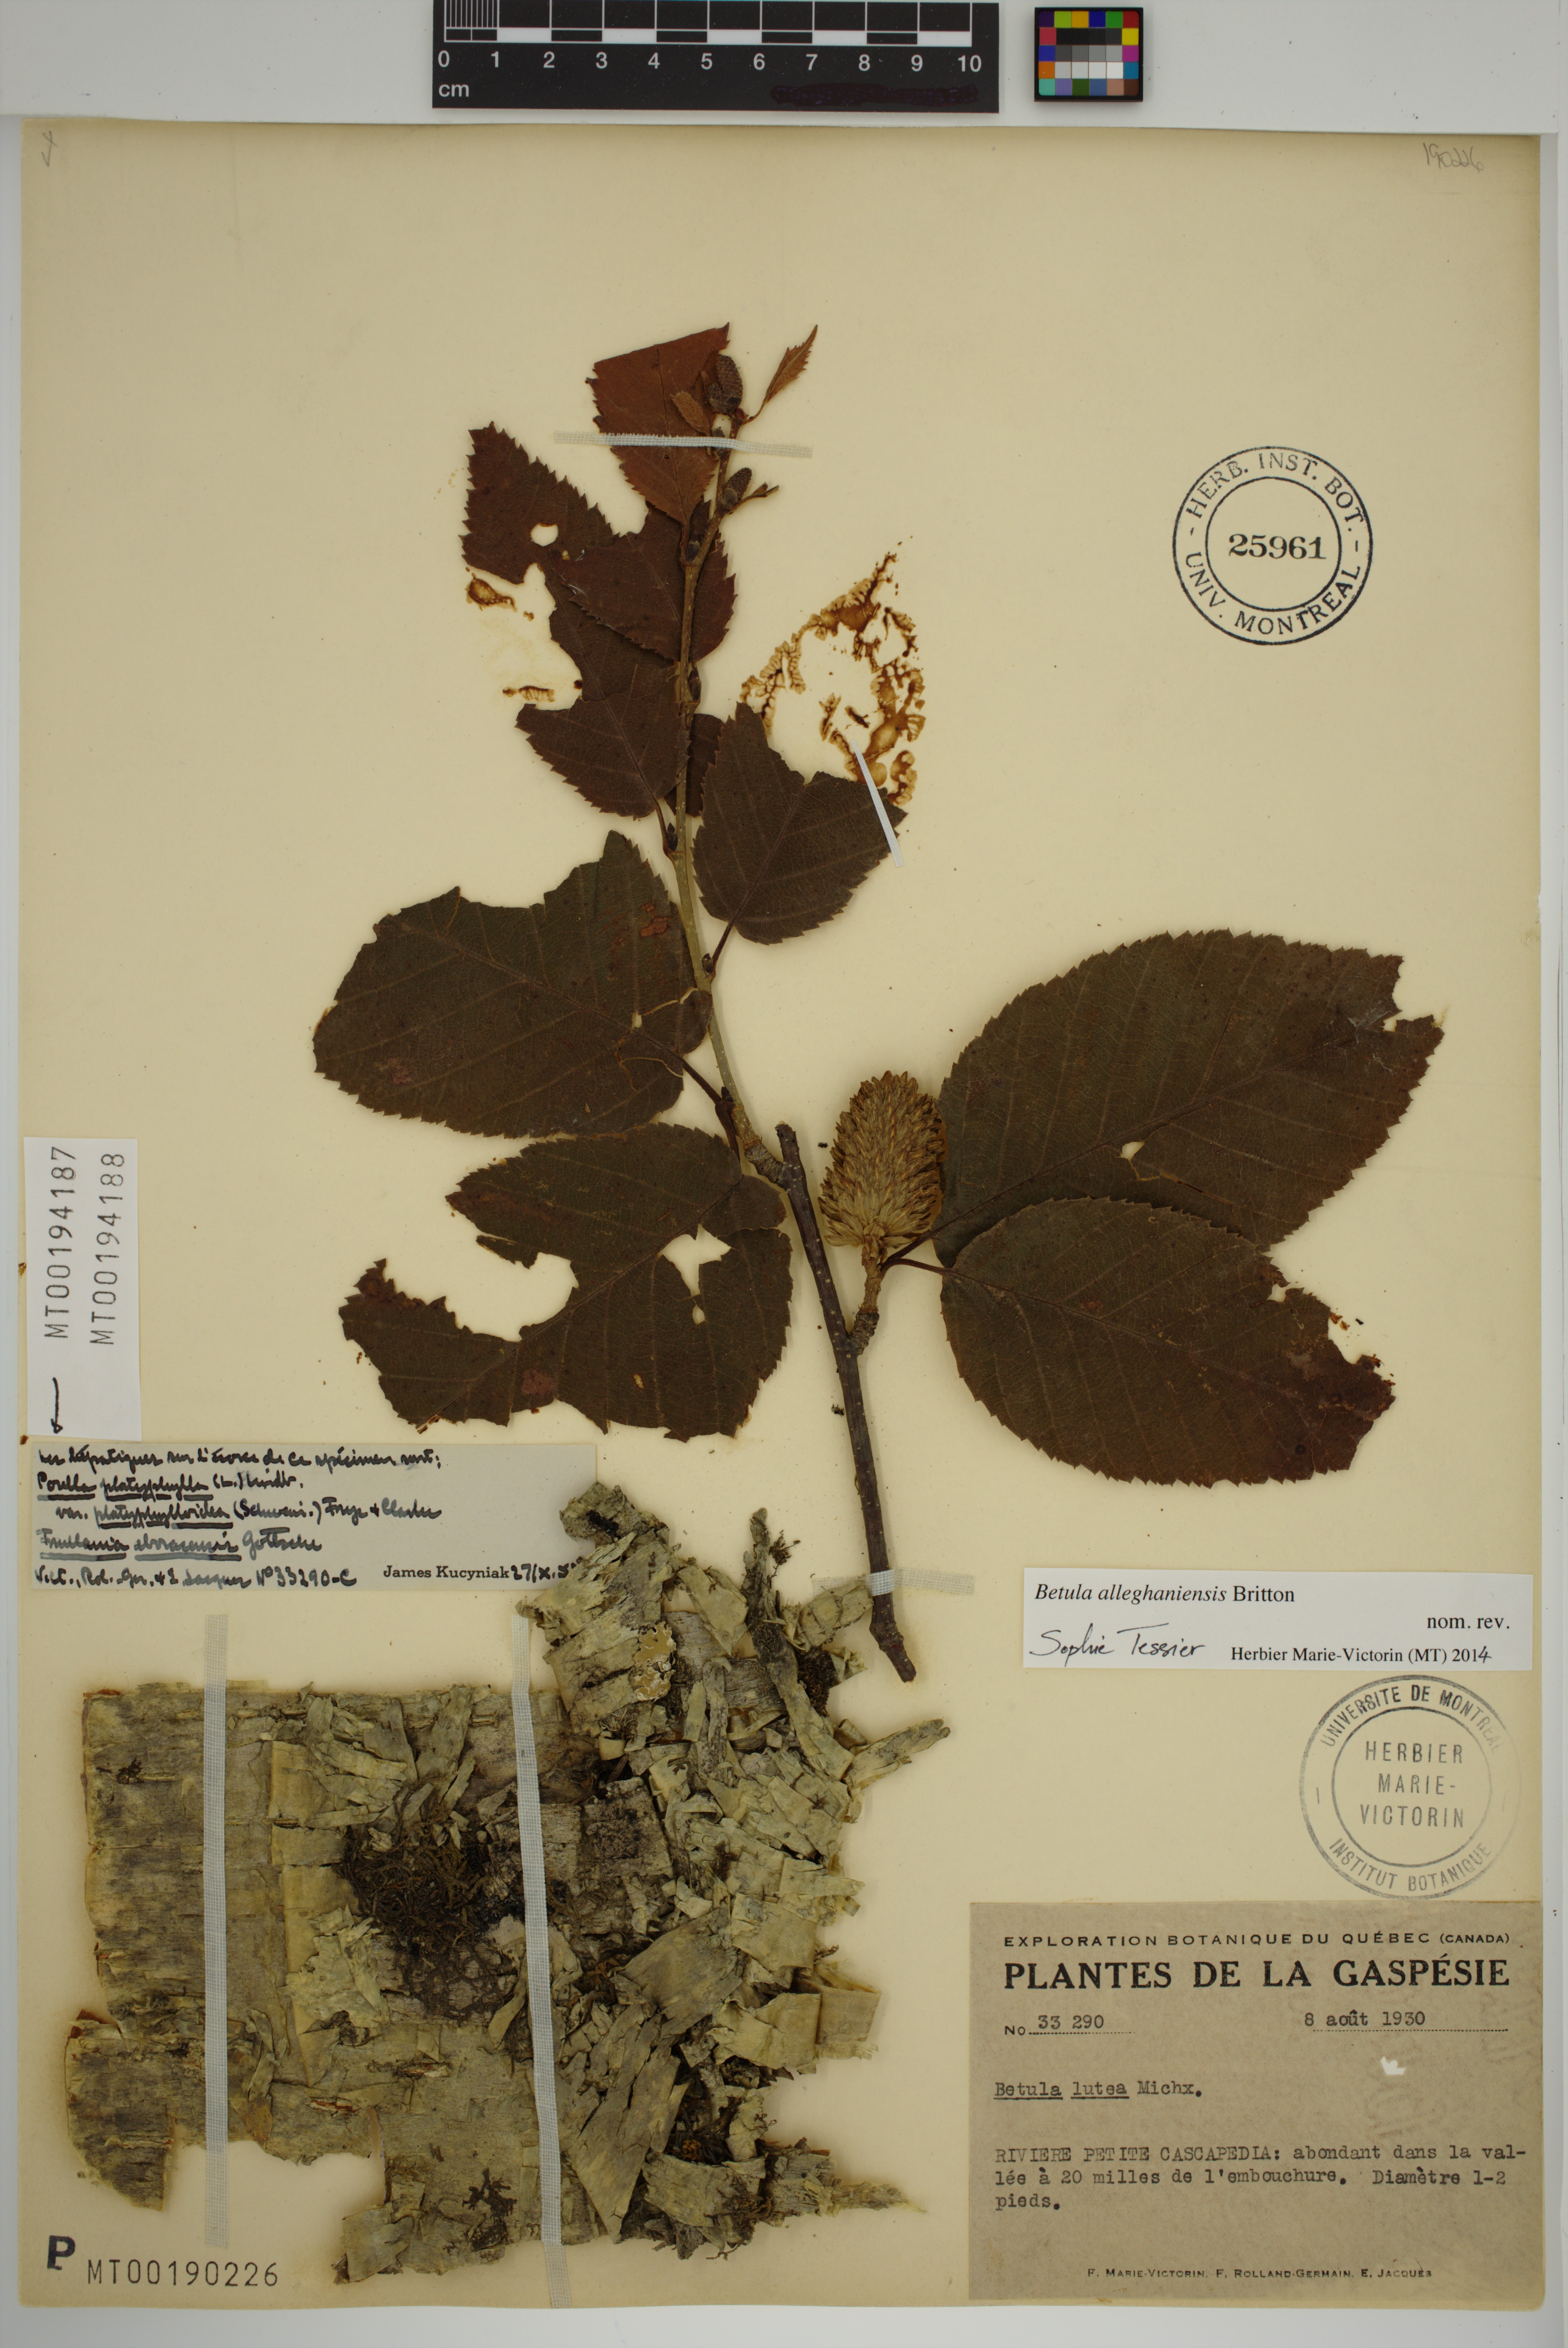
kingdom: Plantae
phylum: Tracheophyta
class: Magnoliopsida
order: Fagales
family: Betulaceae
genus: Betula
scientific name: Betula alleghaniensis
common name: Yellow birch
